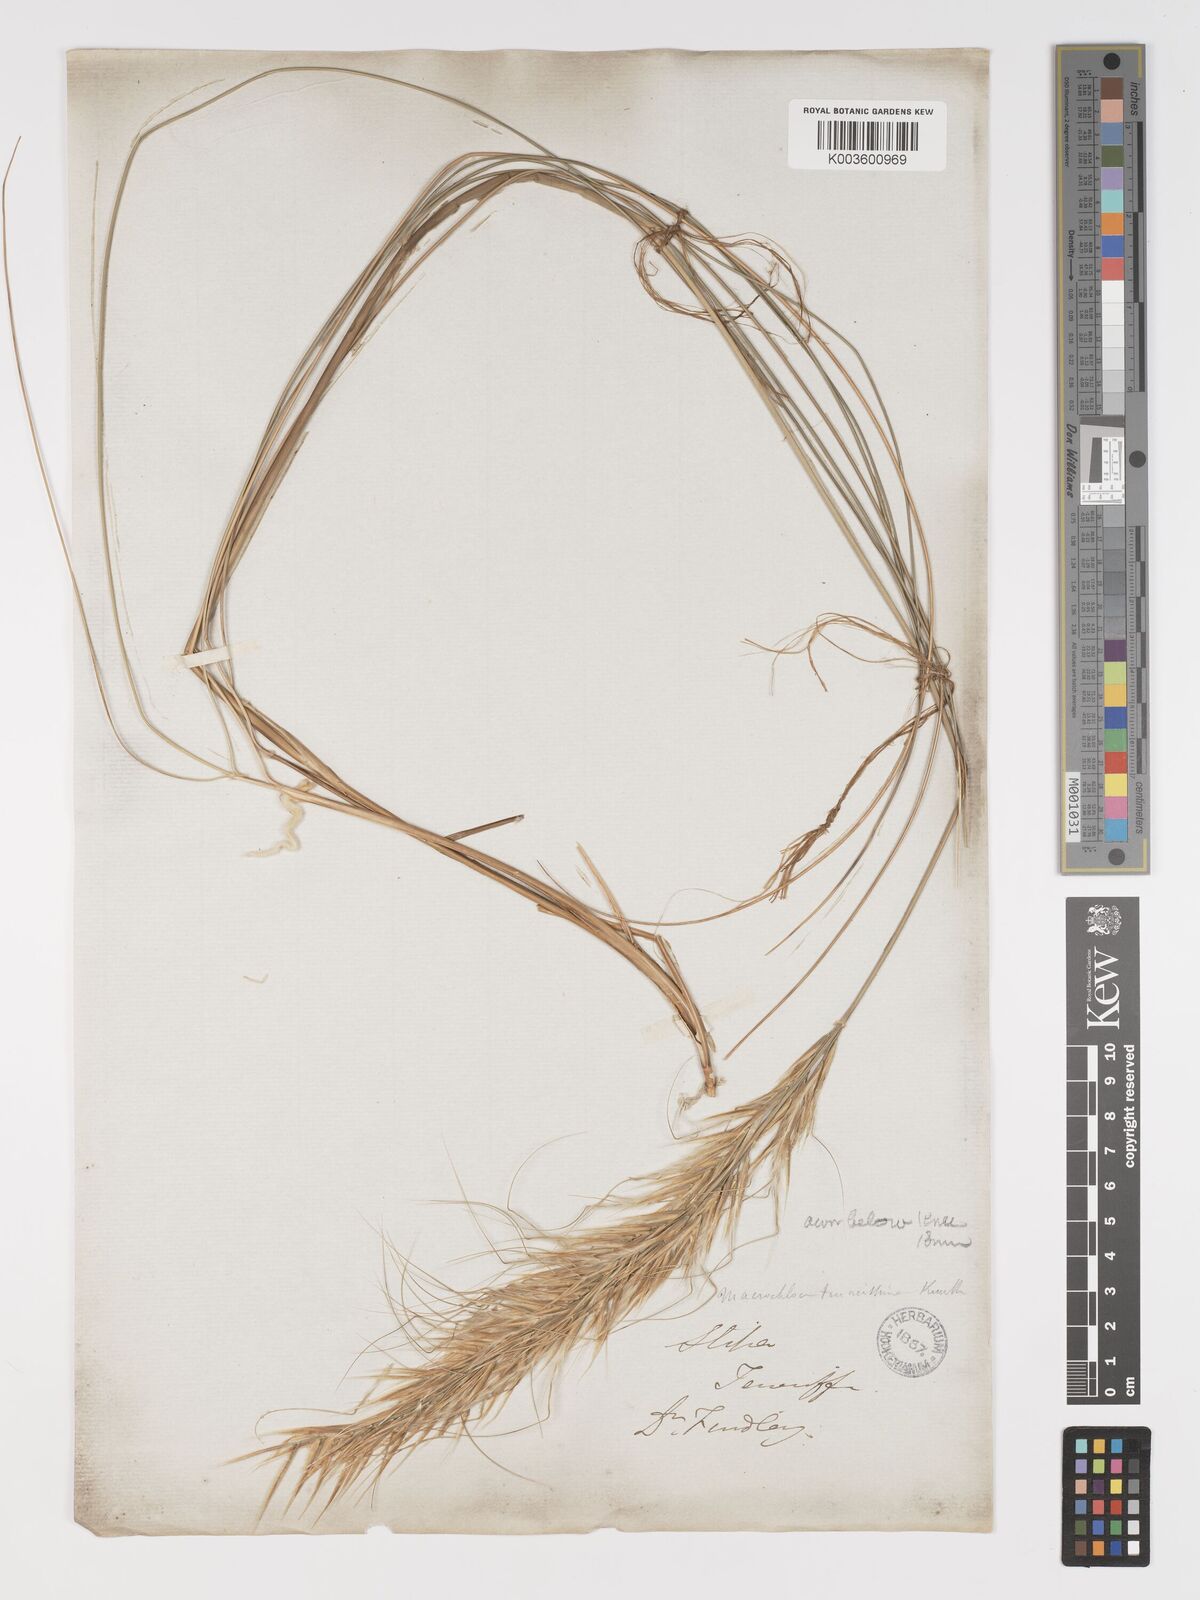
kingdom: Plantae
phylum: Tracheophyta
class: Liliopsida
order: Poales
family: Poaceae
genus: Macrochloa
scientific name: Macrochloa tenacissima
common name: Alfa grass
